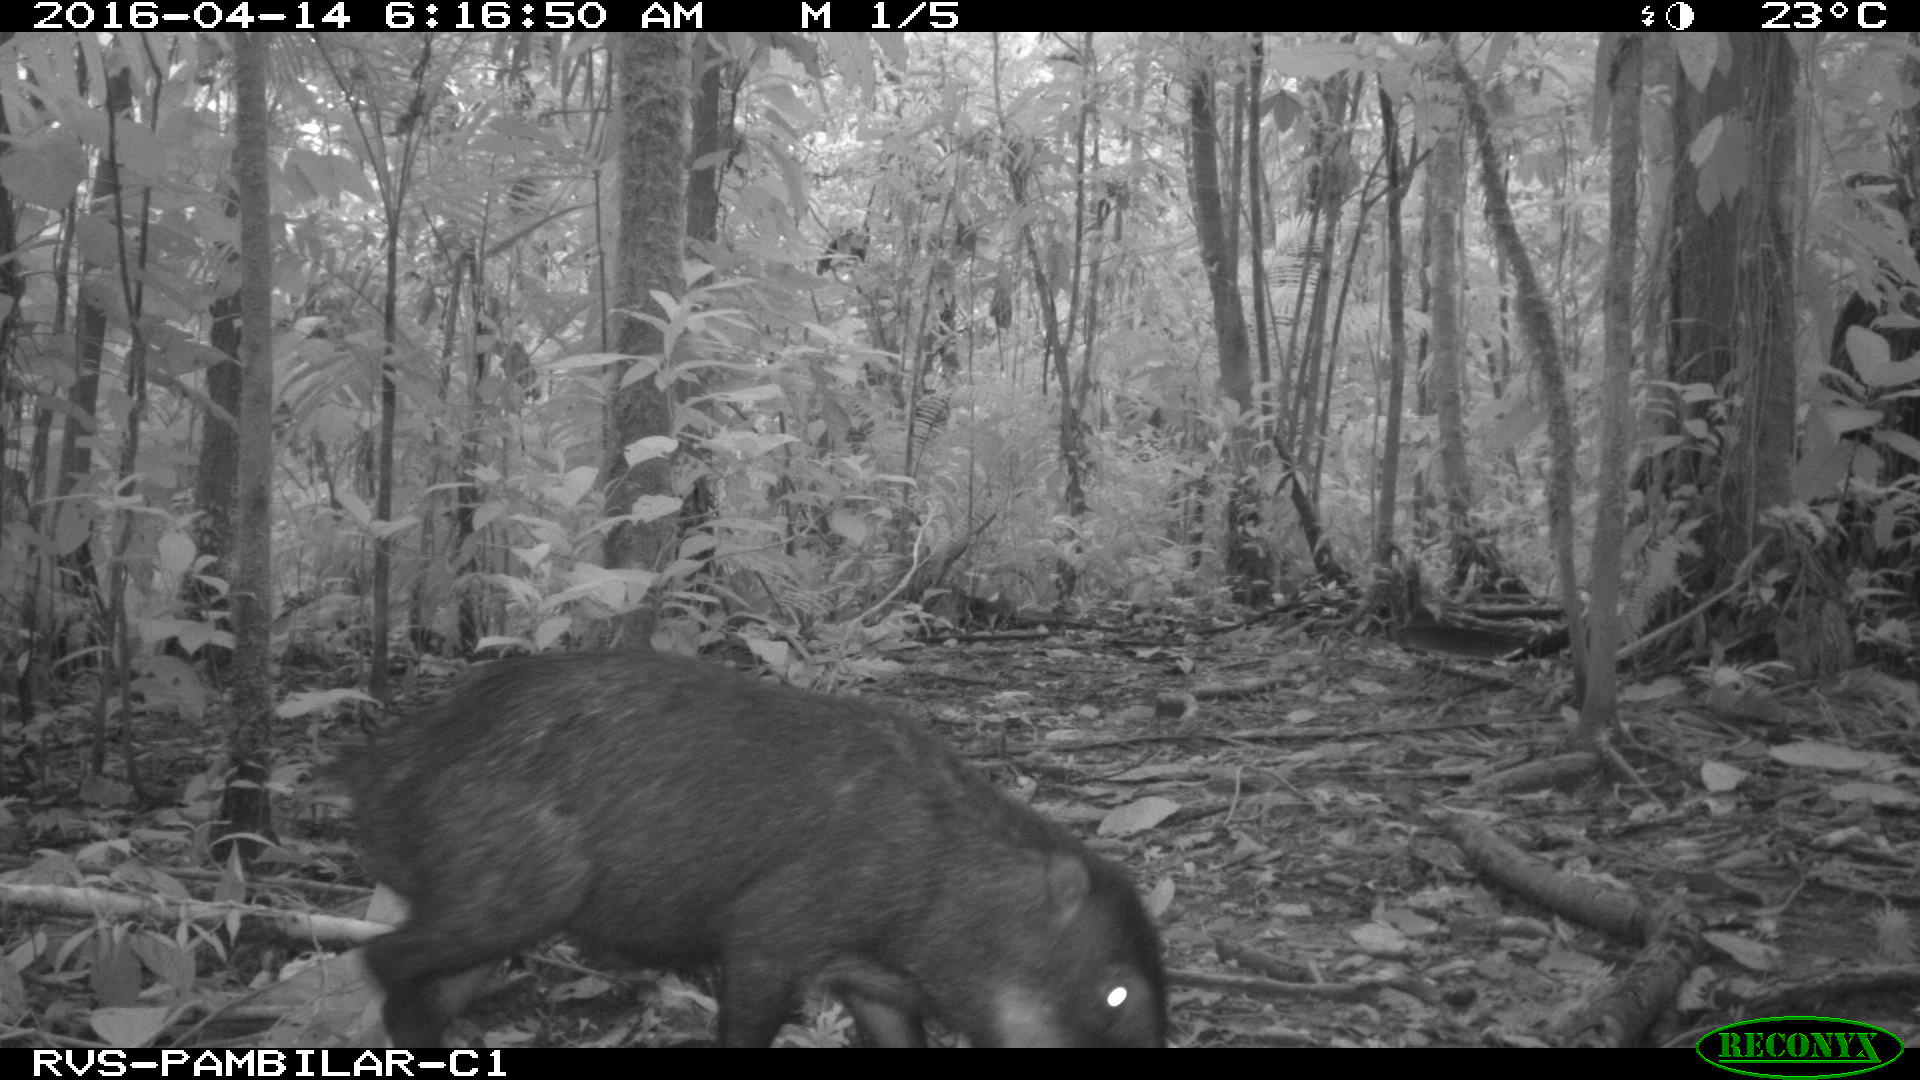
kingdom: Animalia
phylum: Chordata
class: Mammalia
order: Artiodactyla
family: Tayassuidae
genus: Tayassu
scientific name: Tayassu pecari
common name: White-lipped peccary
